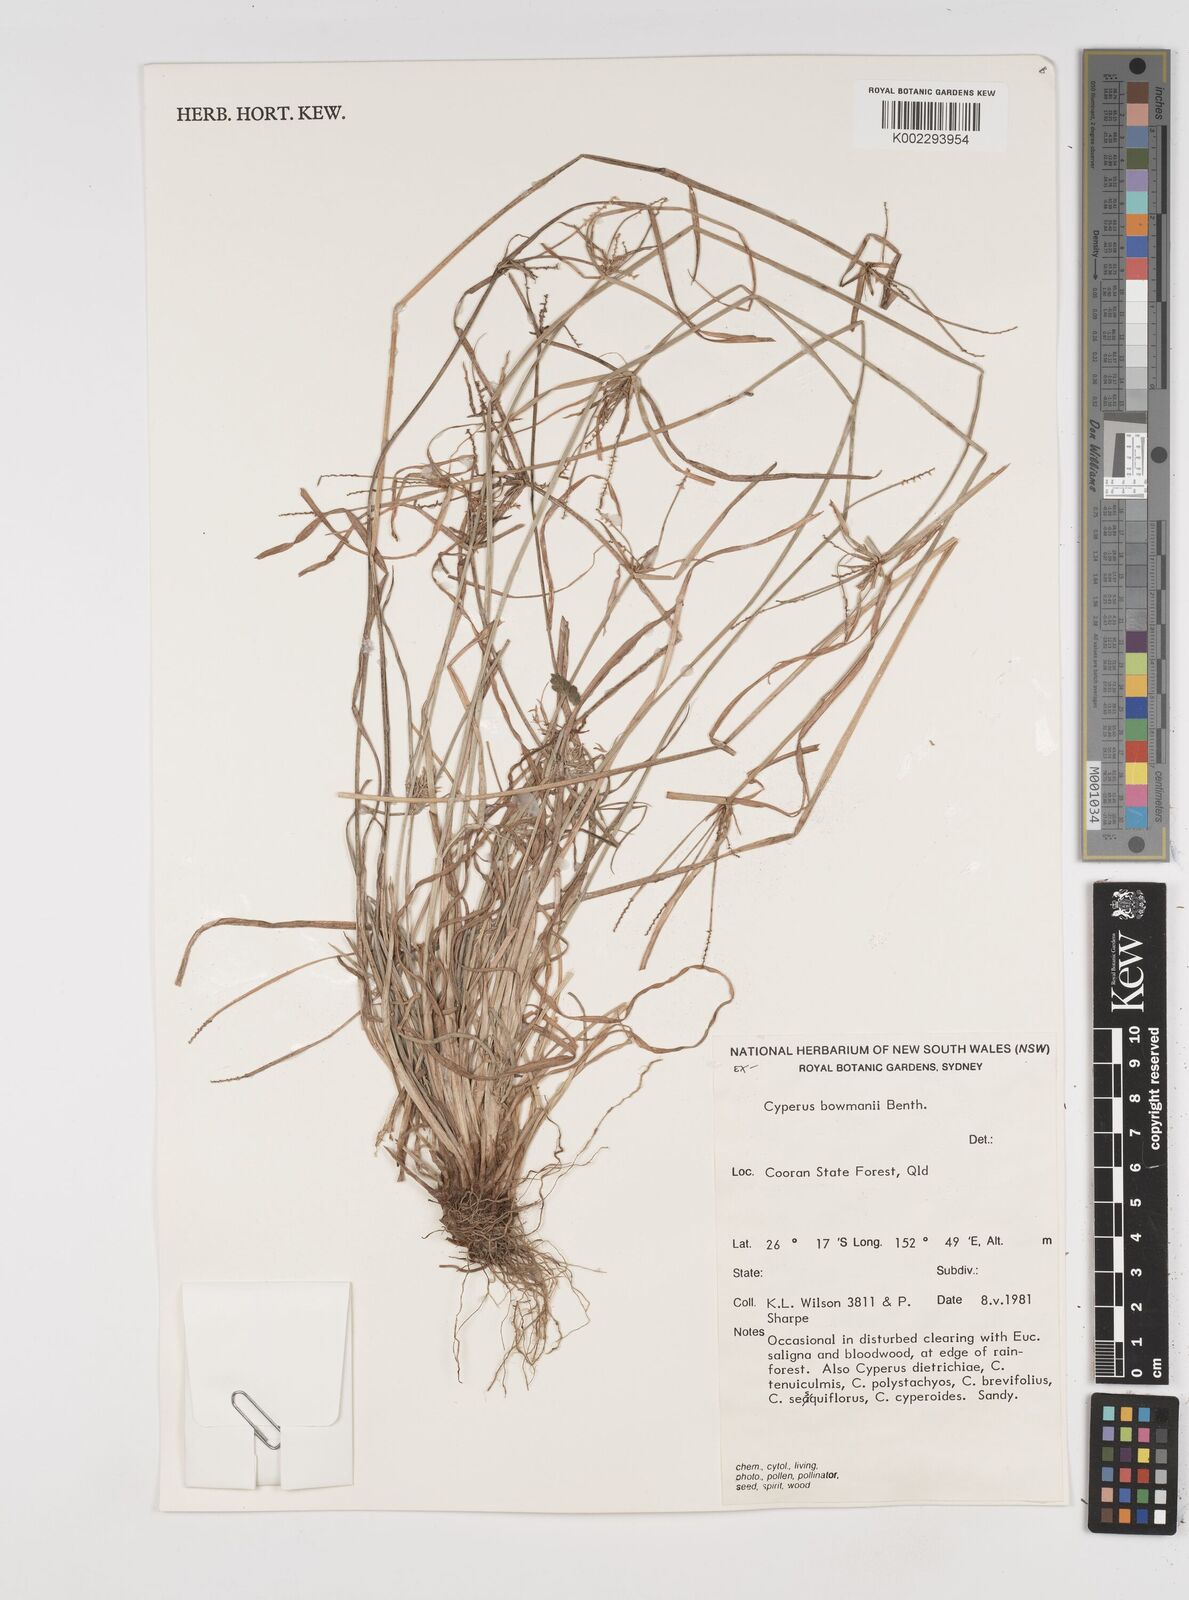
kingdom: Plantae
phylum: Tracheophyta
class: Liliopsida
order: Poales
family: Cyperaceae
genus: Cyperus
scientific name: Cyperus bowmanni
